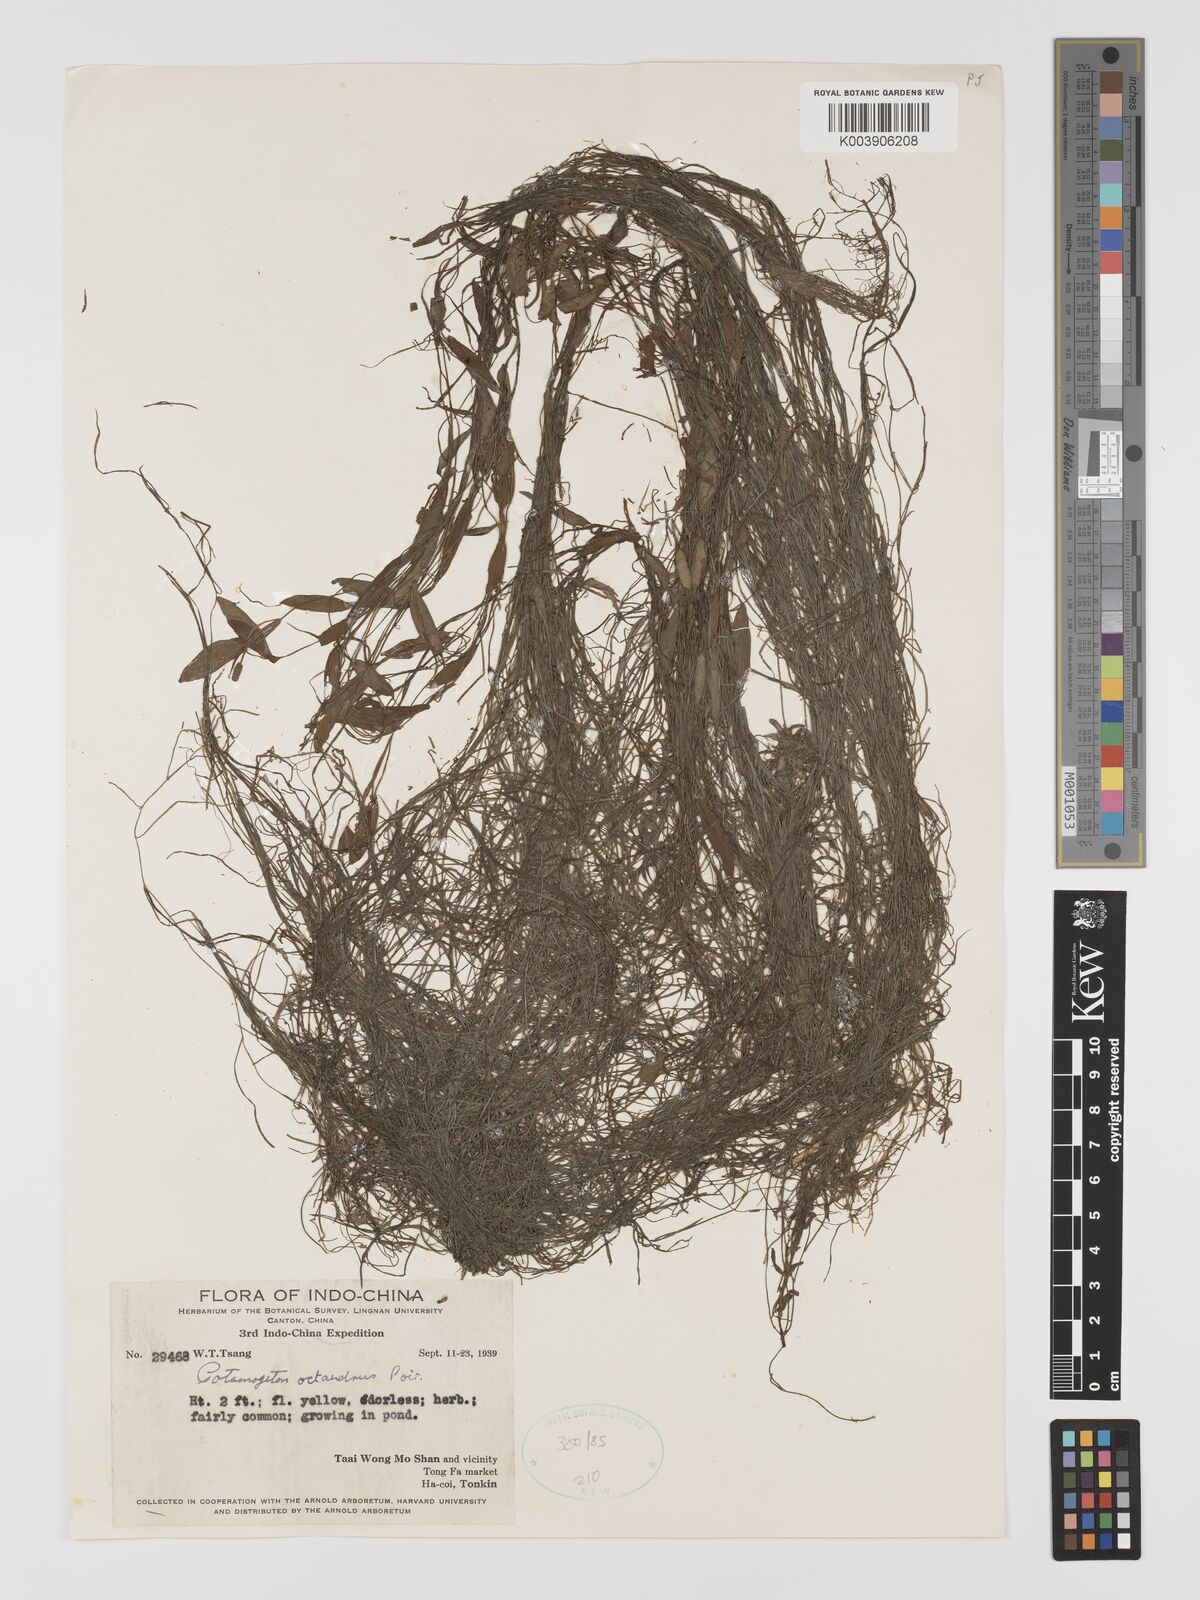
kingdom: Plantae
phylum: Tracheophyta
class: Liliopsida
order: Alismatales
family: Potamogetonaceae
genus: Potamogeton
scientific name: Potamogeton octandrus
